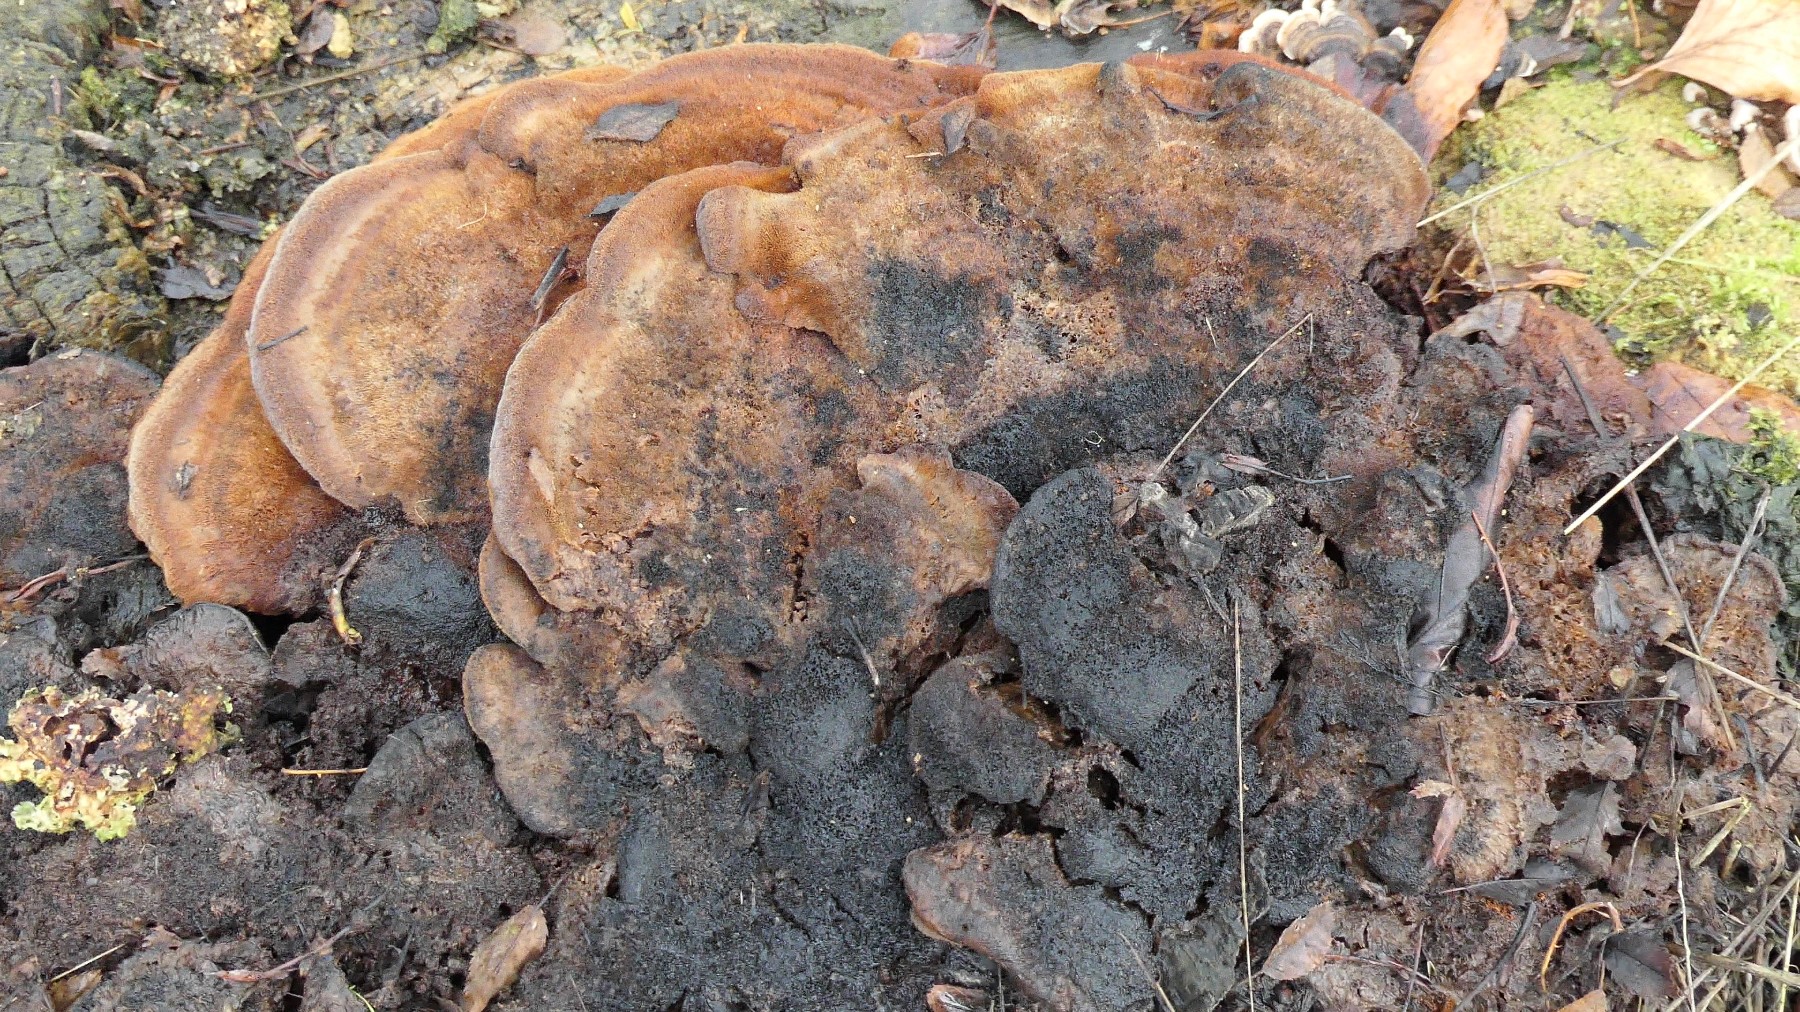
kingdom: Fungi
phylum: Basidiomycota
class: Agaricomycetes
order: Hymenochaetales
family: Hymenochaetaceae
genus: Inonotus
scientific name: Inonotus cuticularis
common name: kroghåret spejlporesvamp
